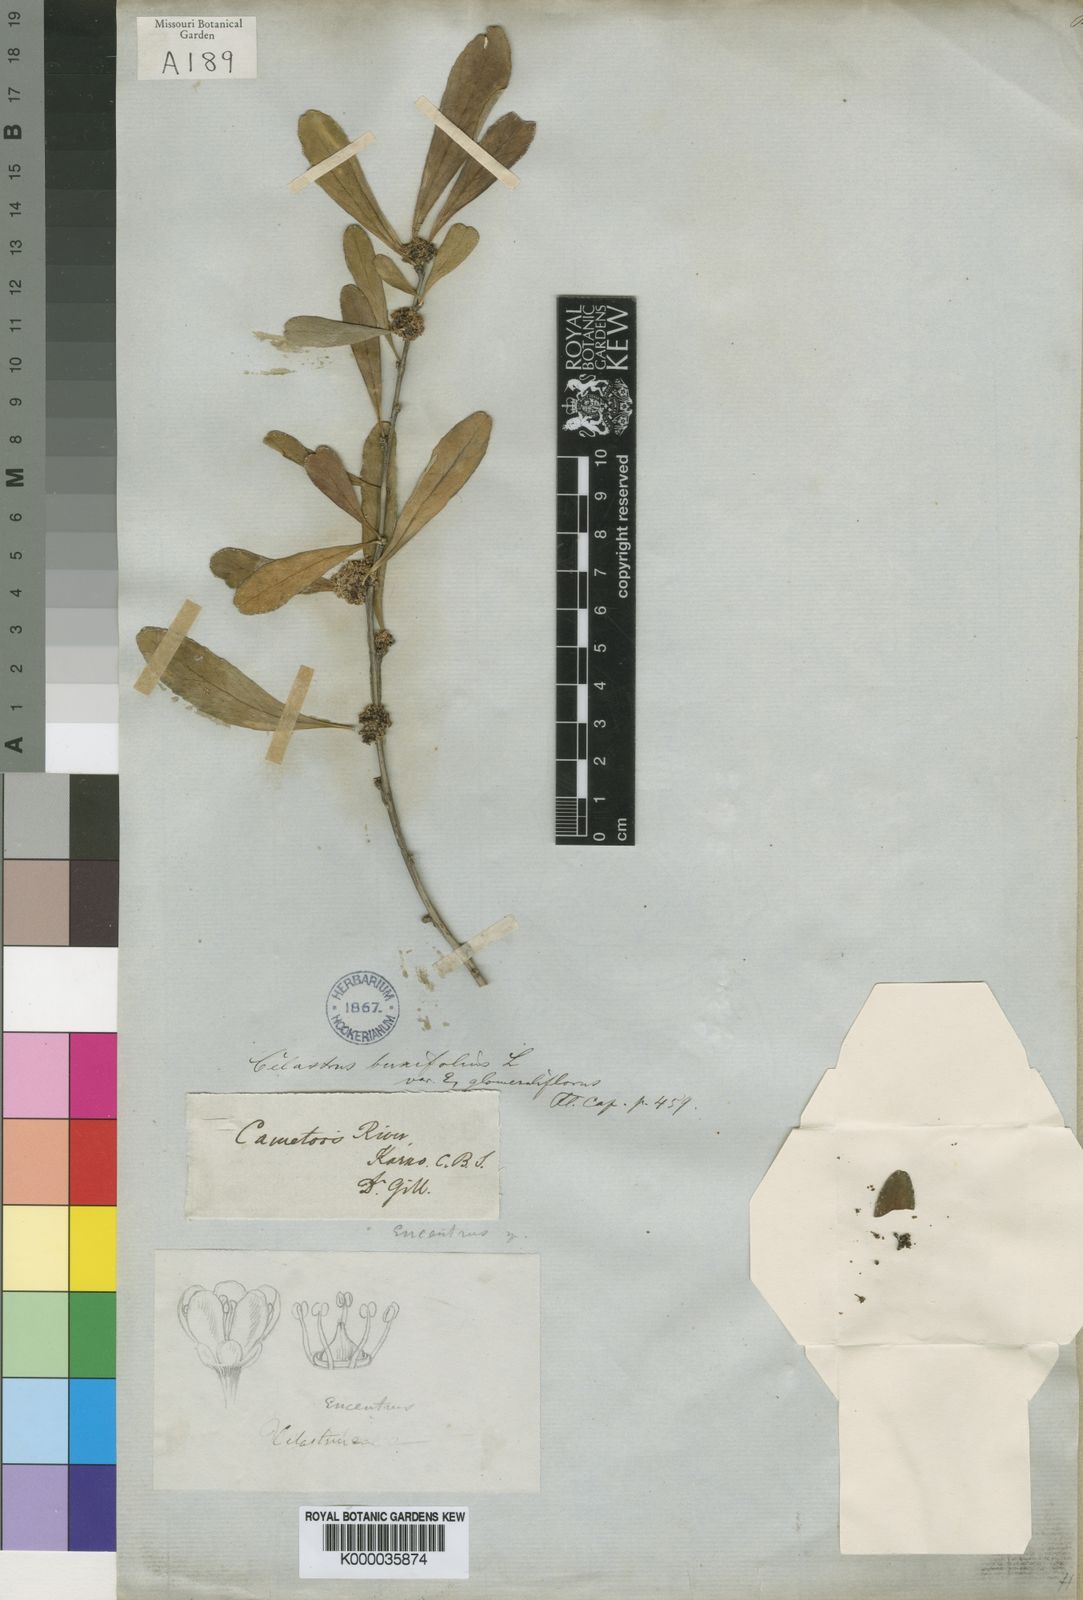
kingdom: Plantae
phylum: Tracheophyta
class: Magnoliopsida
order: Celastrales
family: Celastraceae
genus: Gymnosporia
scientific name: Gymnosporia heterophylla
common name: Angle-stem spikethorn
